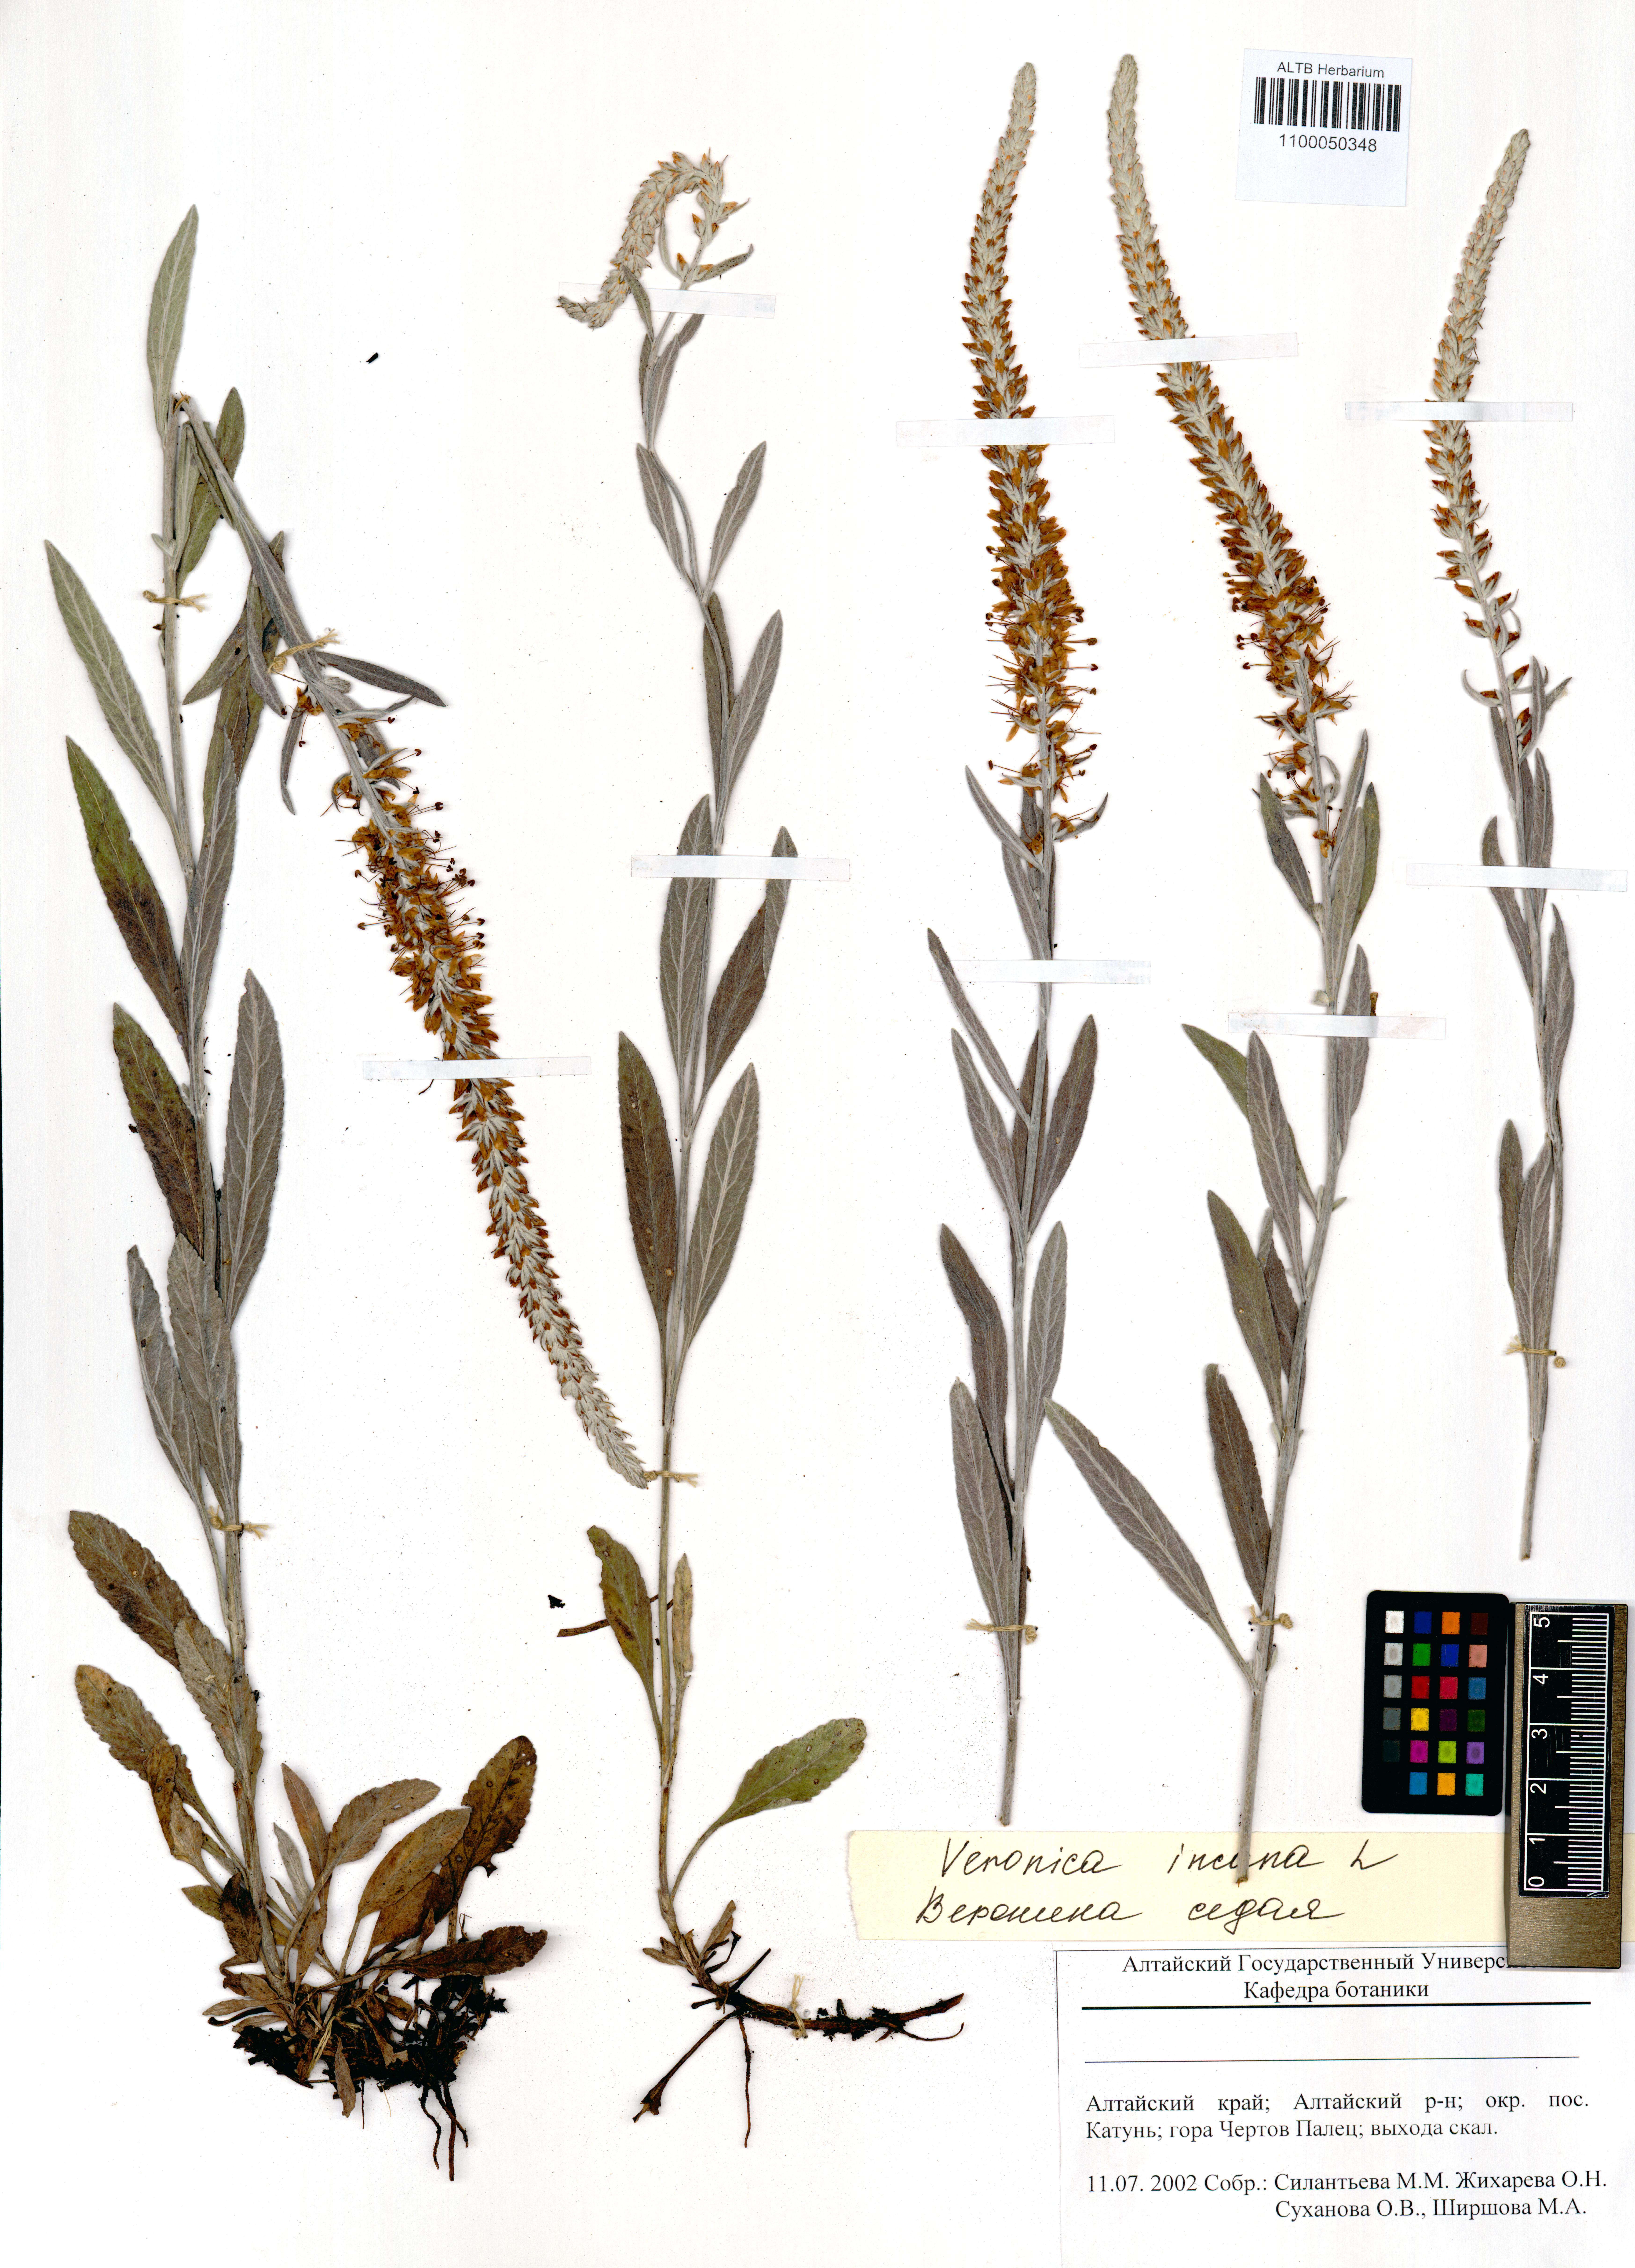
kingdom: Plantae
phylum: Tracheophyta
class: Magnoliopsida
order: Lamiales
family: Plantaginaceae
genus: Veronica
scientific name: Veronica incana
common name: Silver speedwell
